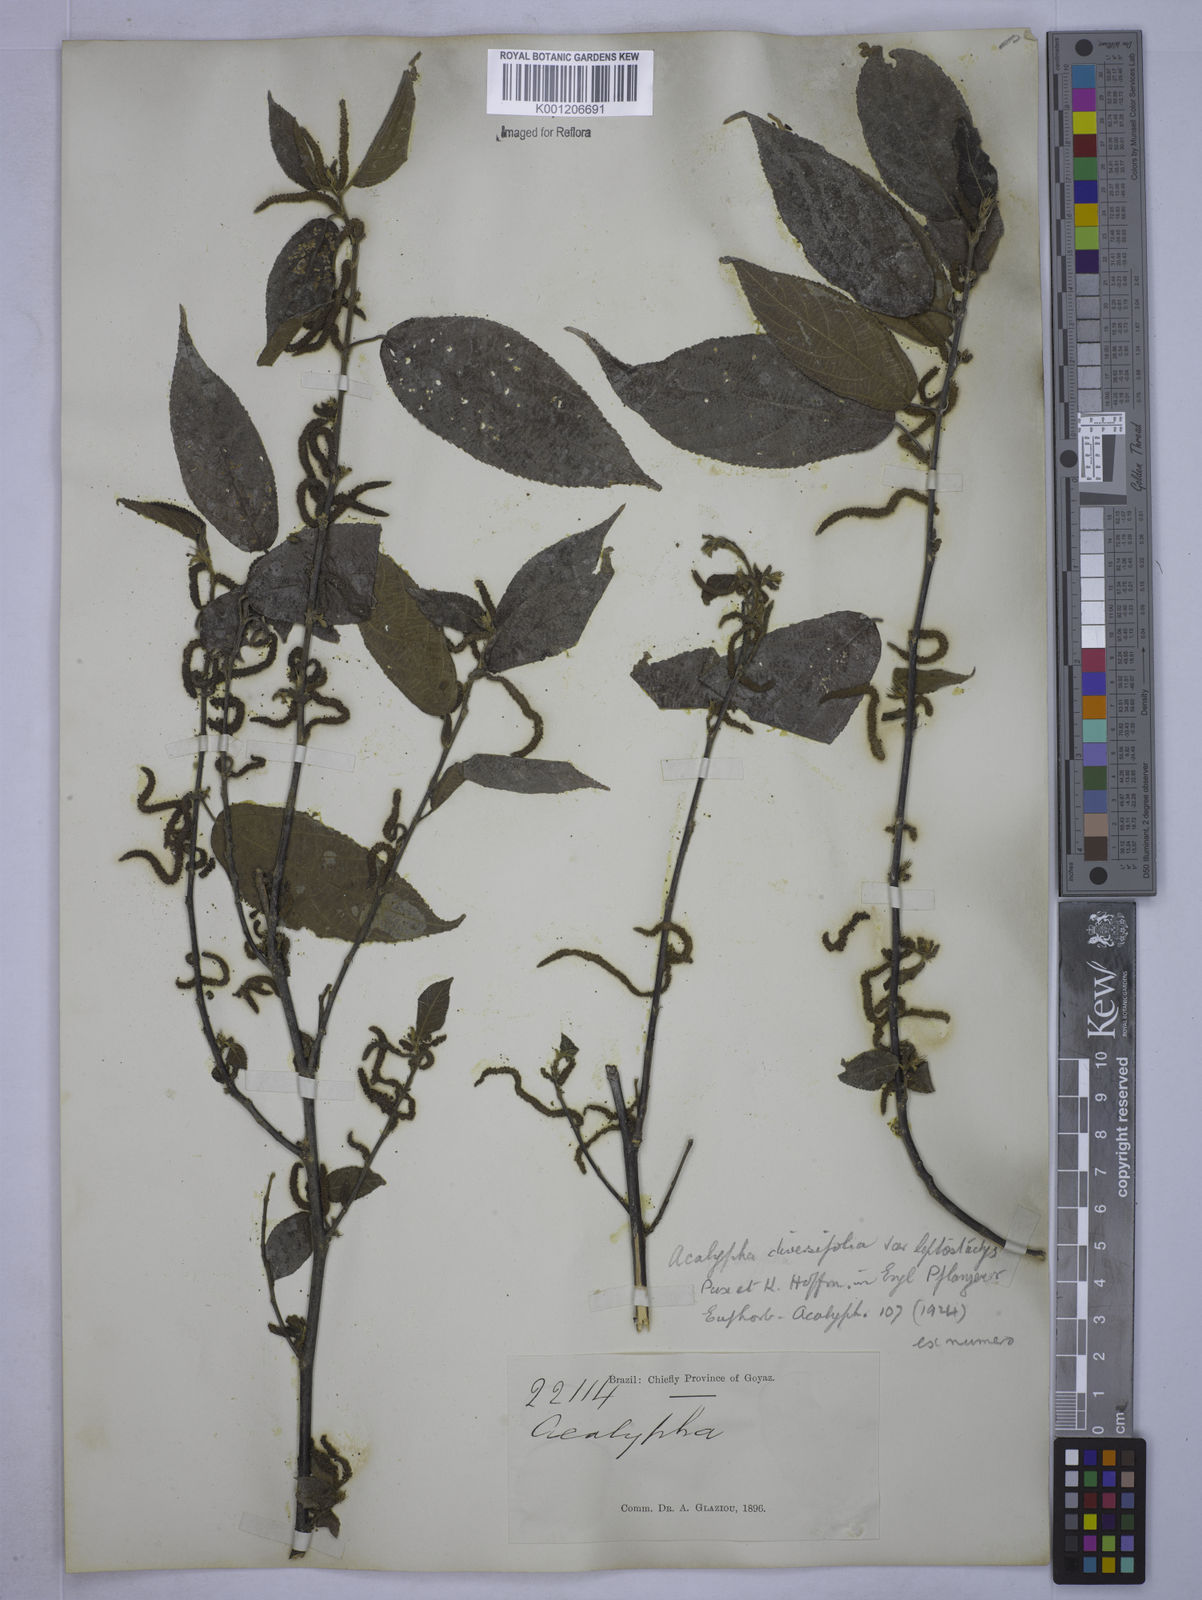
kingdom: Plantae
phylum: Tracheophyta
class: Magnoliopsida
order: Malpighiales
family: Euphorbiaceae
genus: Acalypha
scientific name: Acalypha diversifolia
